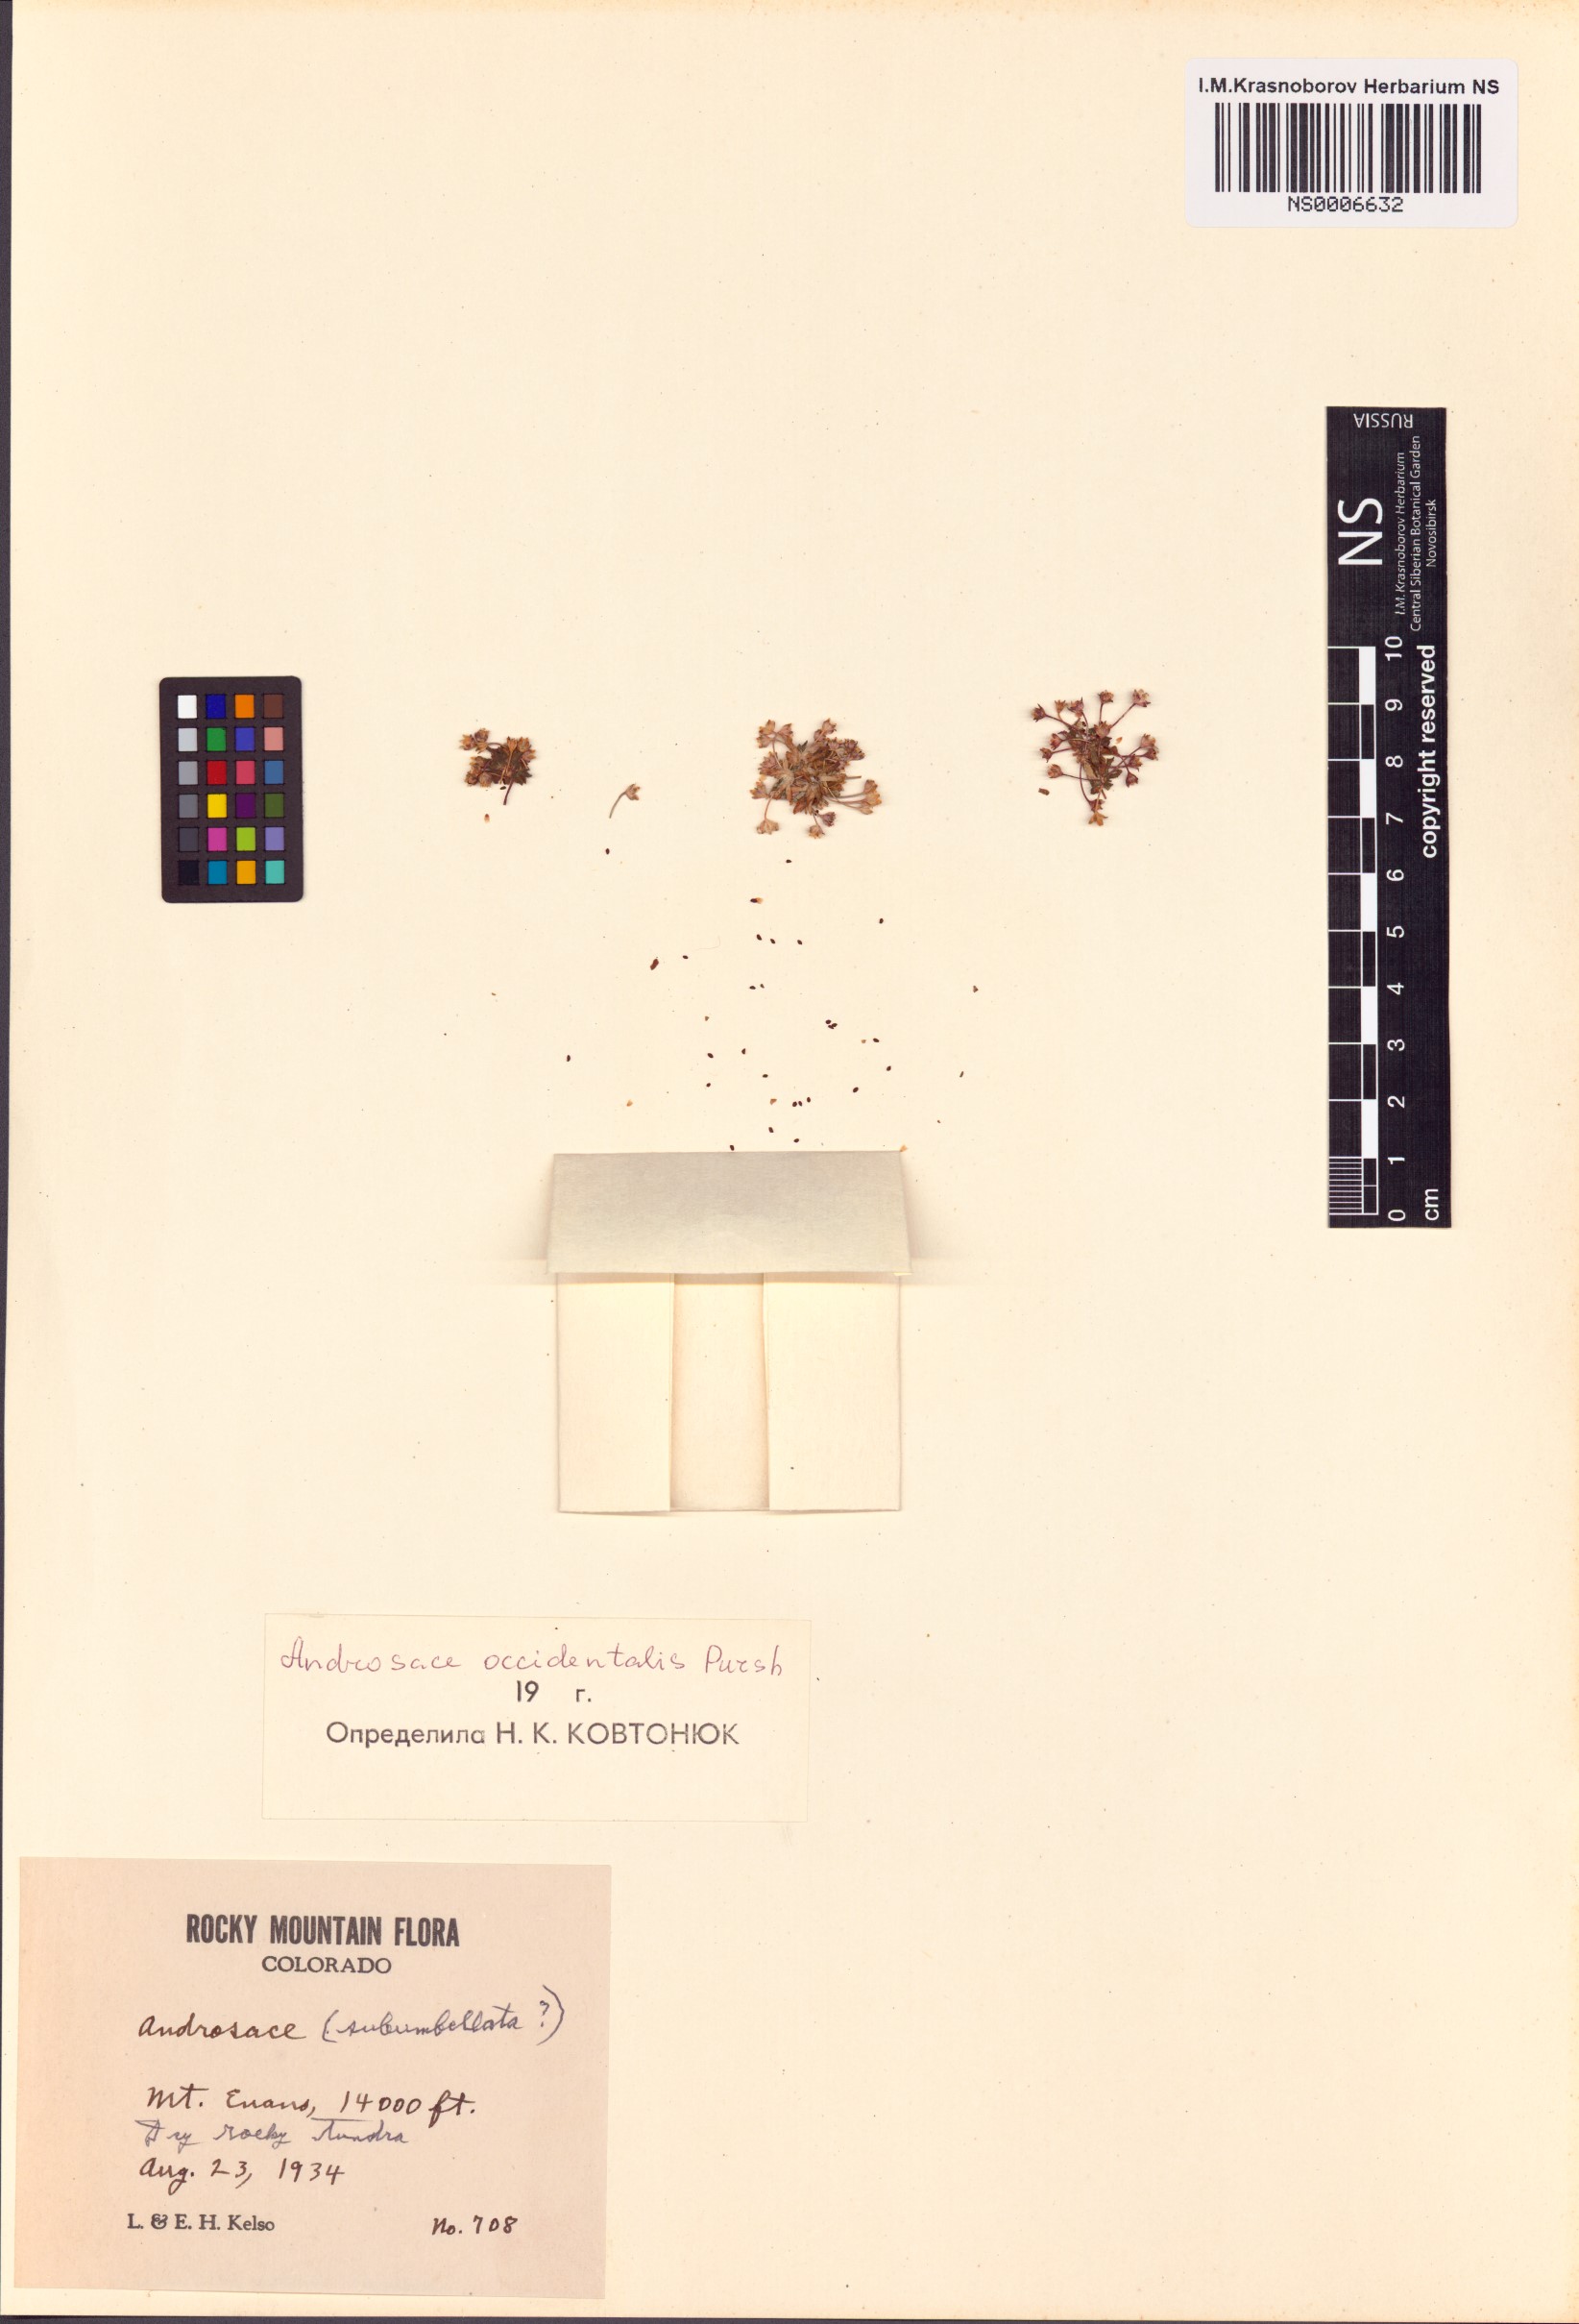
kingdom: Plantae
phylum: Tracheophyta
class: Magnoliopsida
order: Ericales
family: Primulaceae
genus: Androsace
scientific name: Androsace occidentalis
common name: West rock-jasmine
